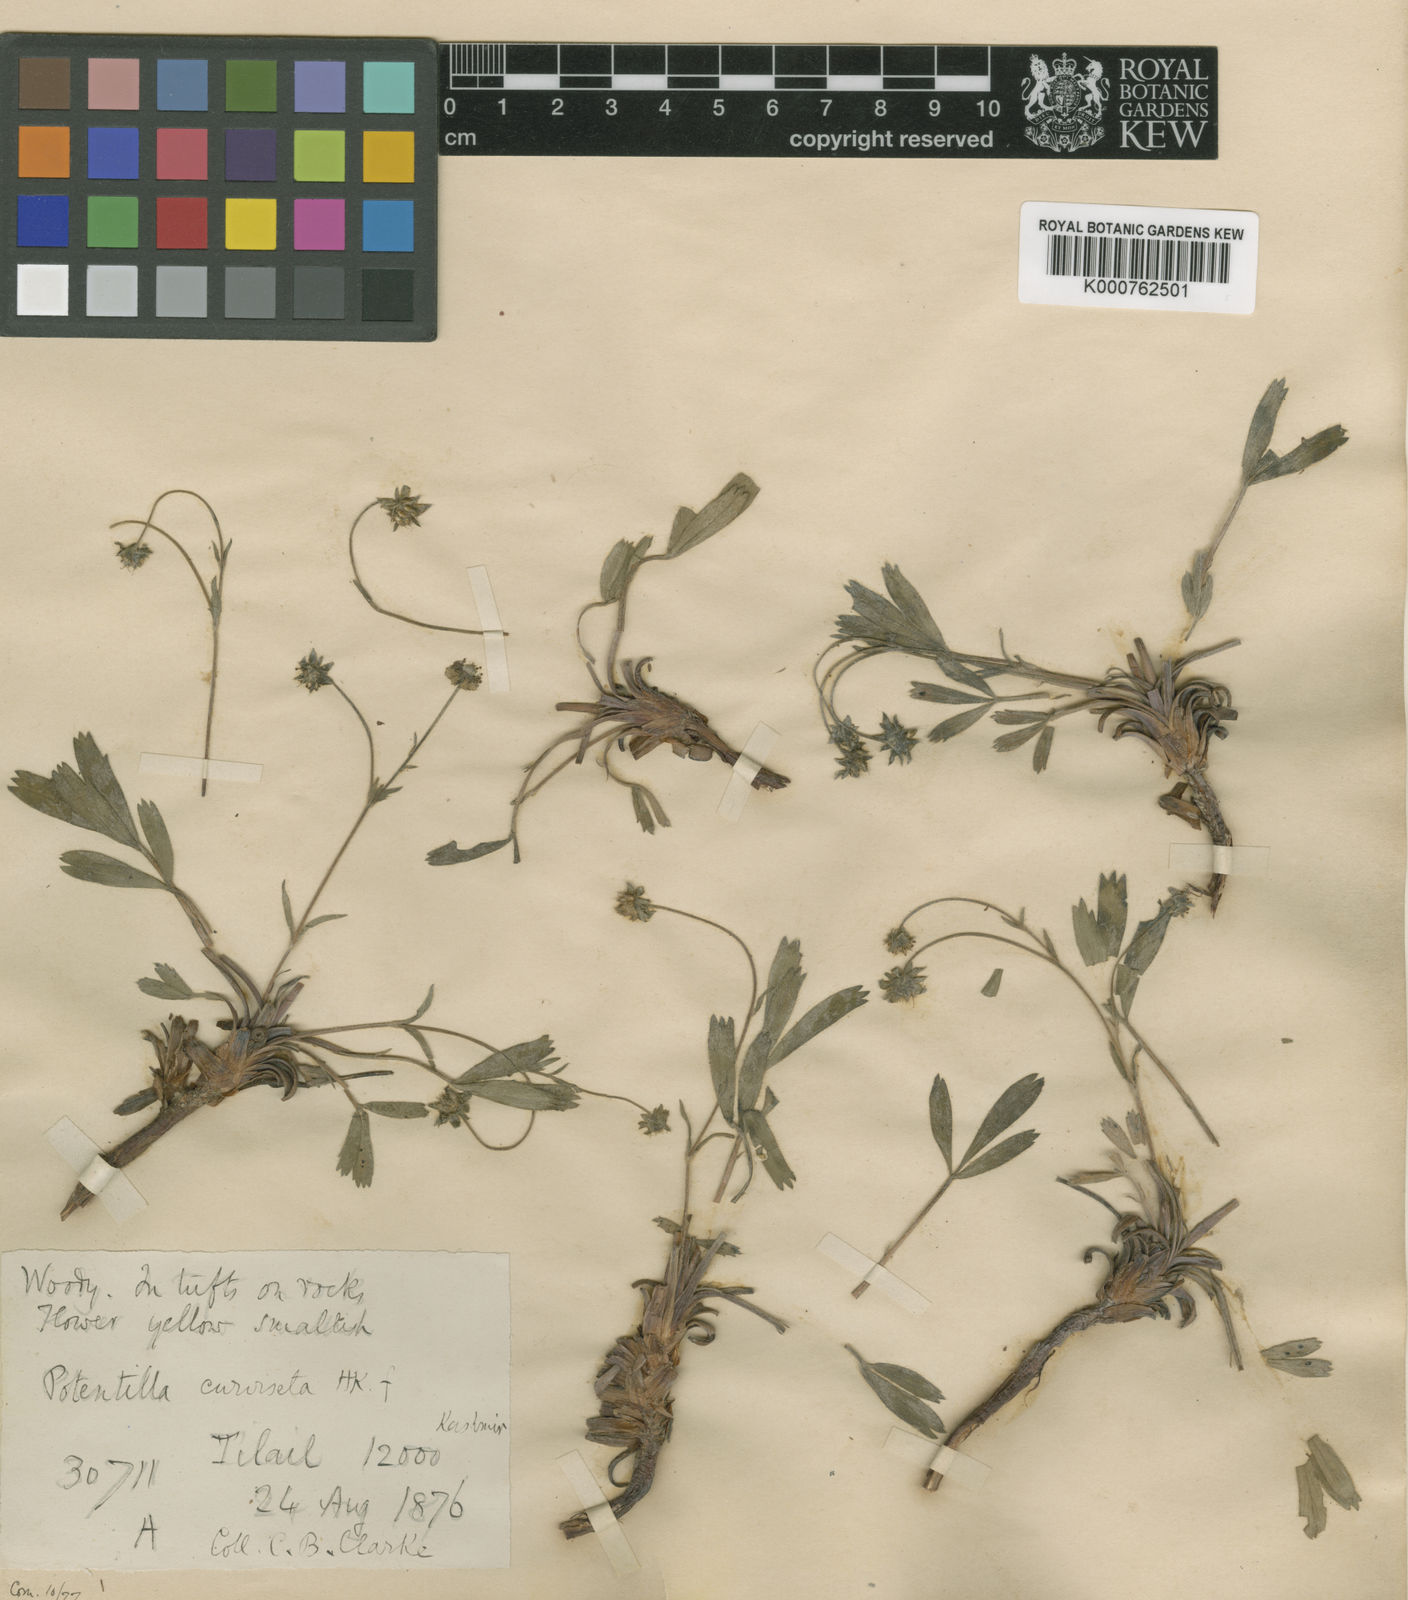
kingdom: Plantae
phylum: Tracheophyta
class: Magnoliopsida
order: Rosales
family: Rosaceae
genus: Potentilla
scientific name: Potentilla curviseta
